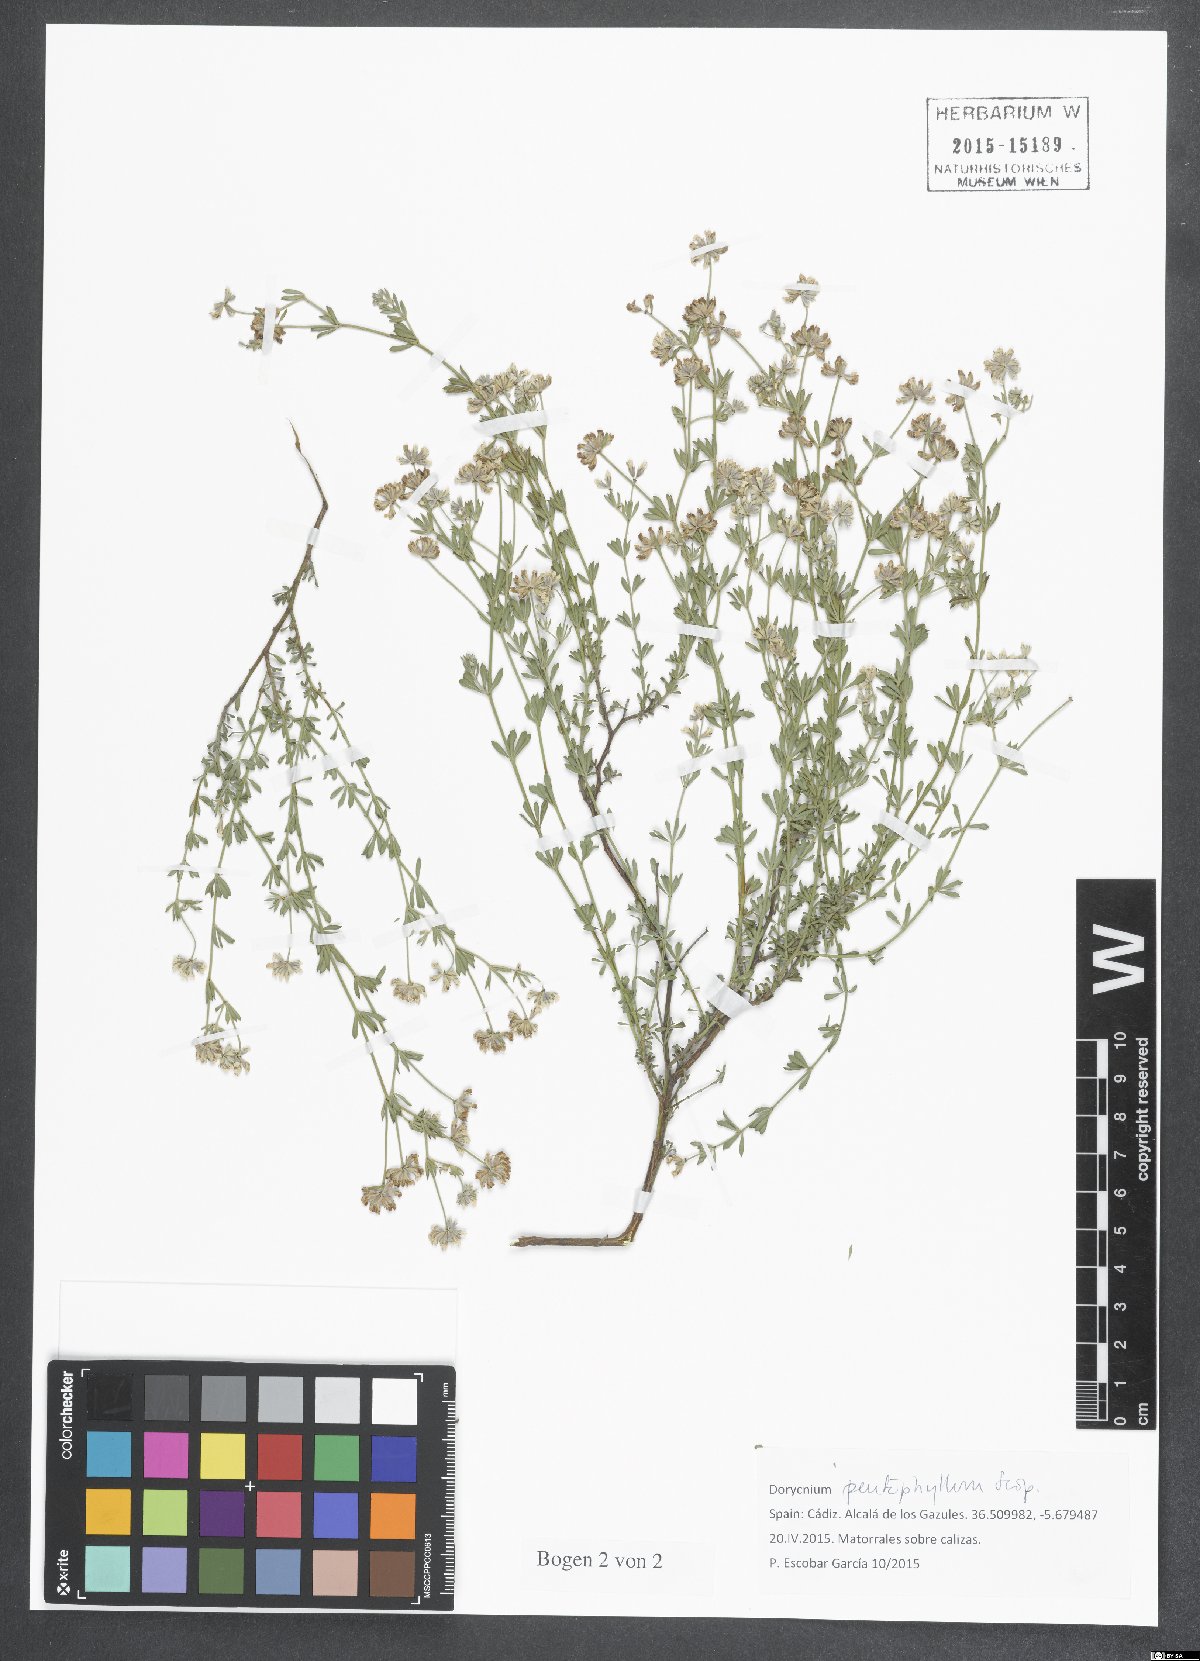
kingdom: Plantae
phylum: Tracheophyta
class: Magnoliopsida
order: Fabales
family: Fabaceae
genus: Lotus
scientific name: Lotus dorycnium
